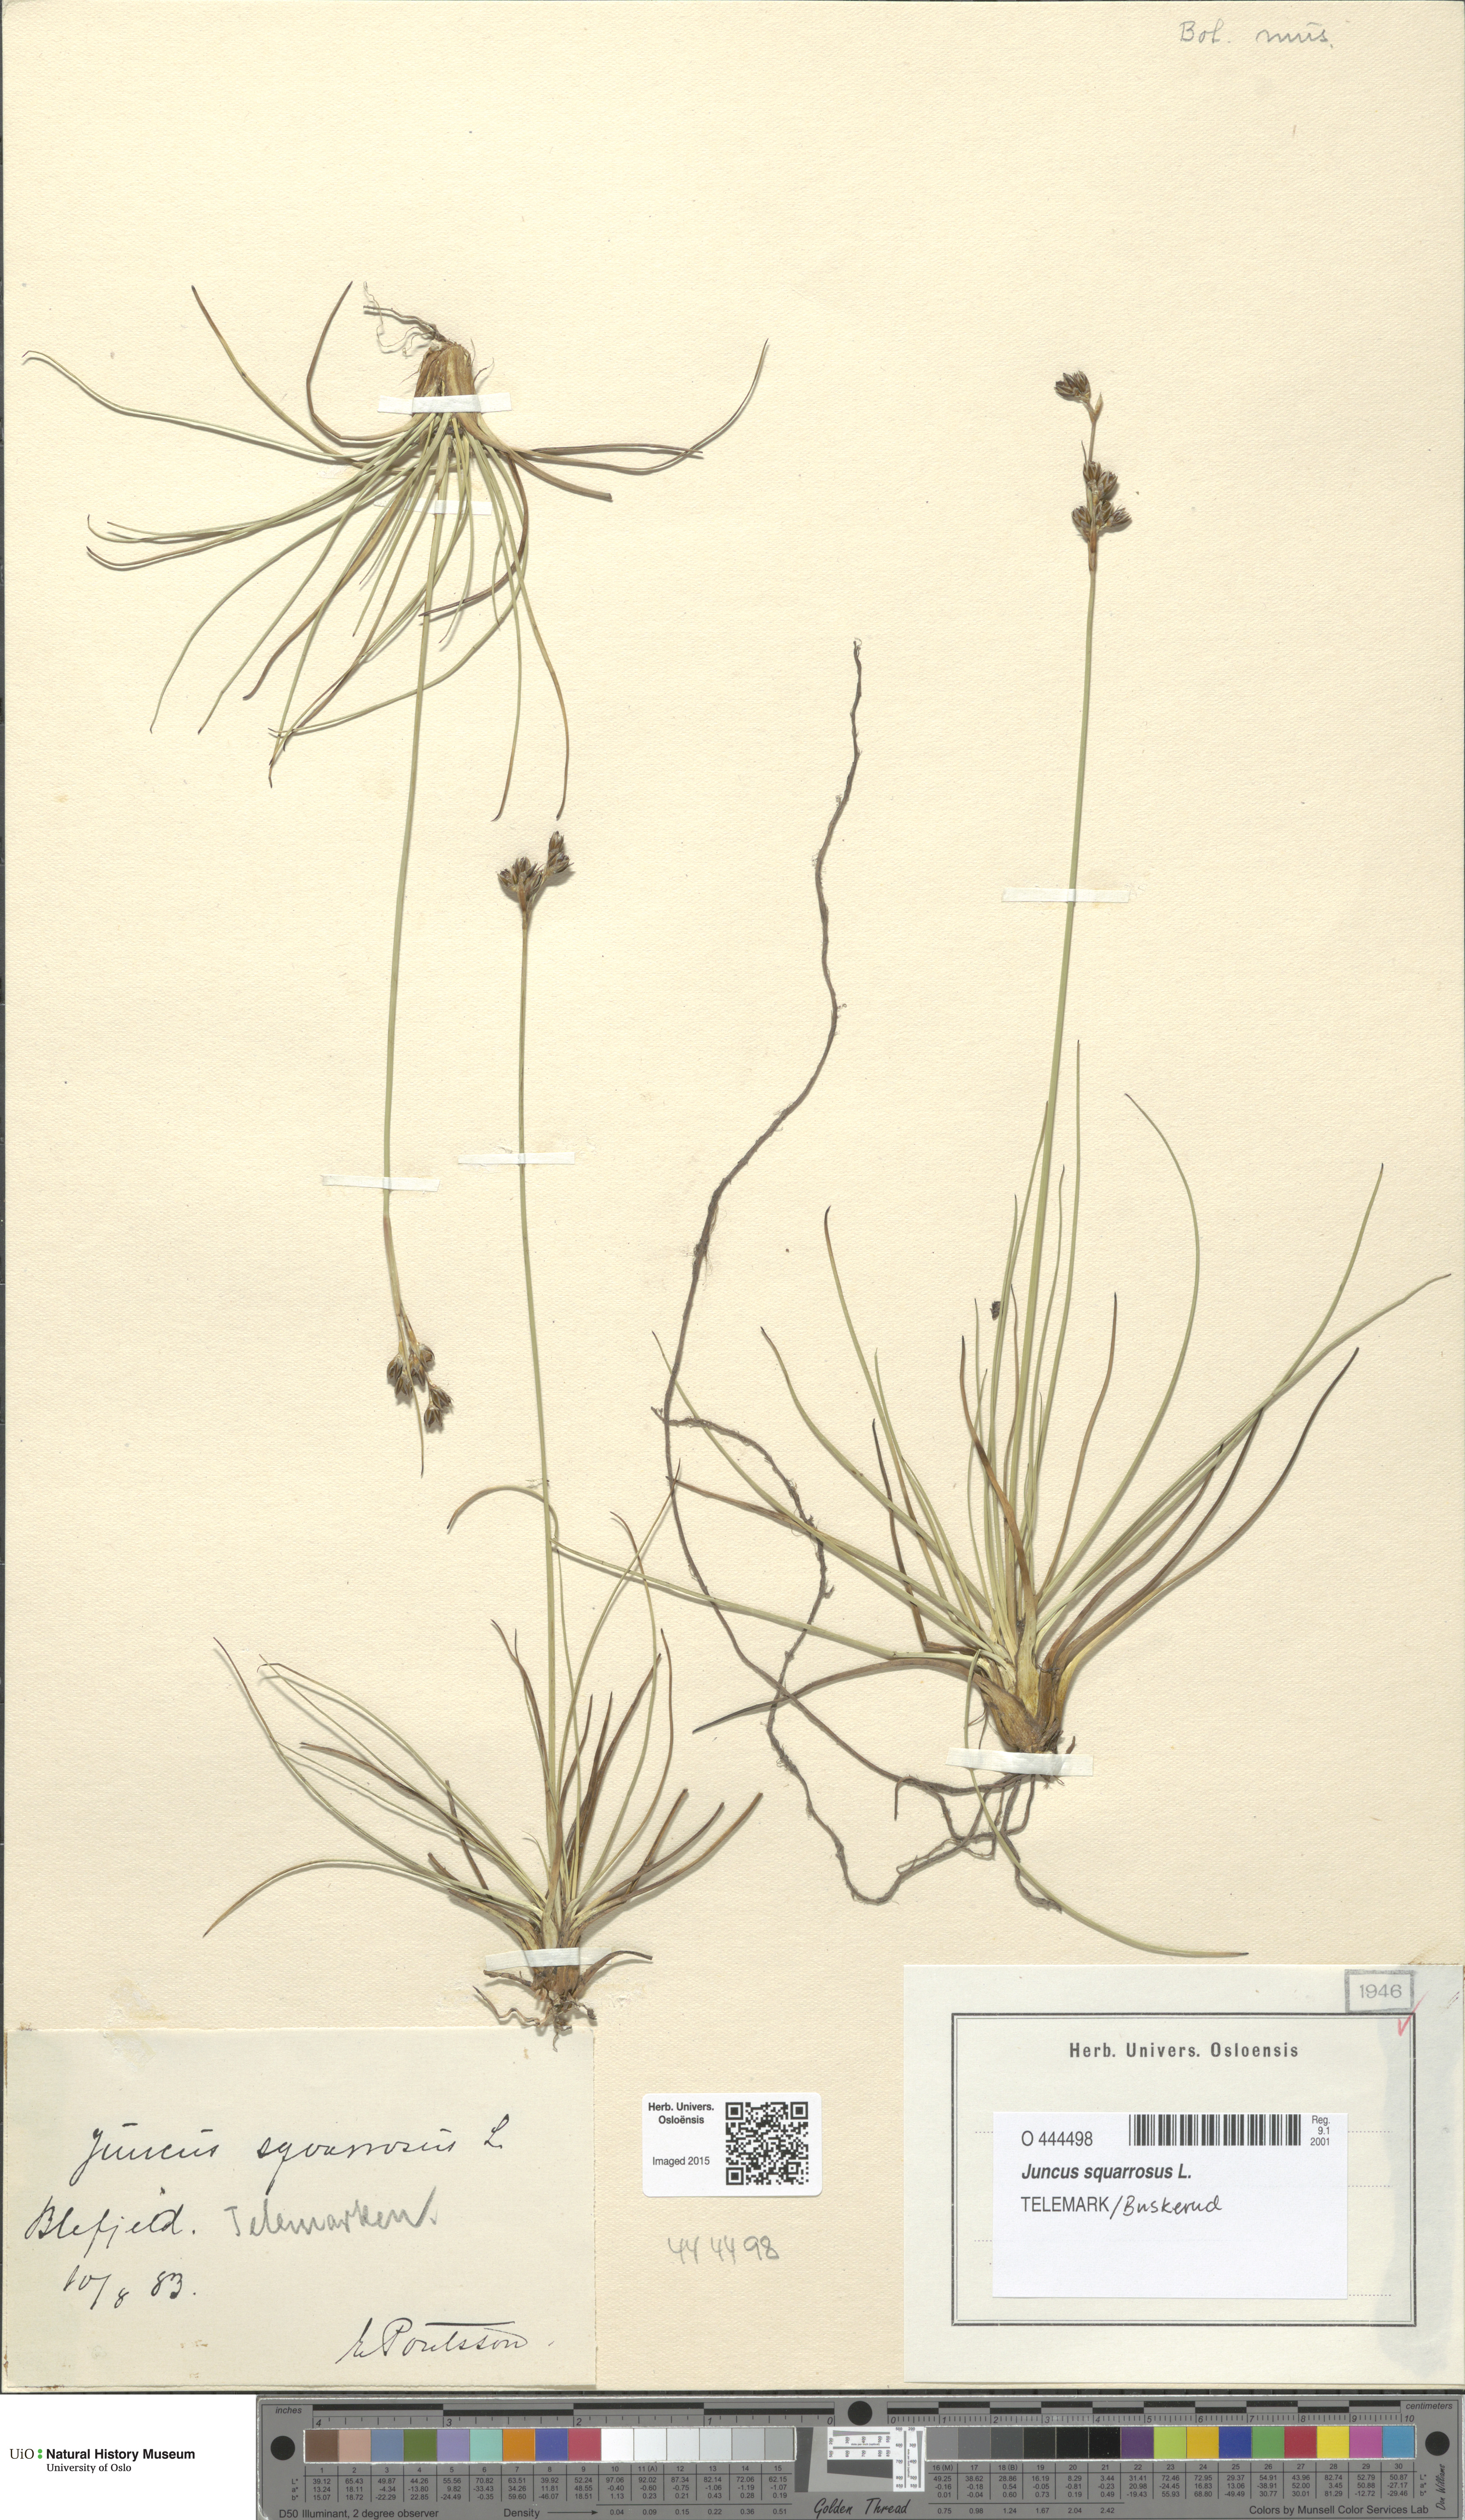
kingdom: Plantae
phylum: Tracheophyta
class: Liliopsida
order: Poales
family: Juncaceae
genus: Juncus
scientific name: Juncus squarrosus
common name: Heath rush
